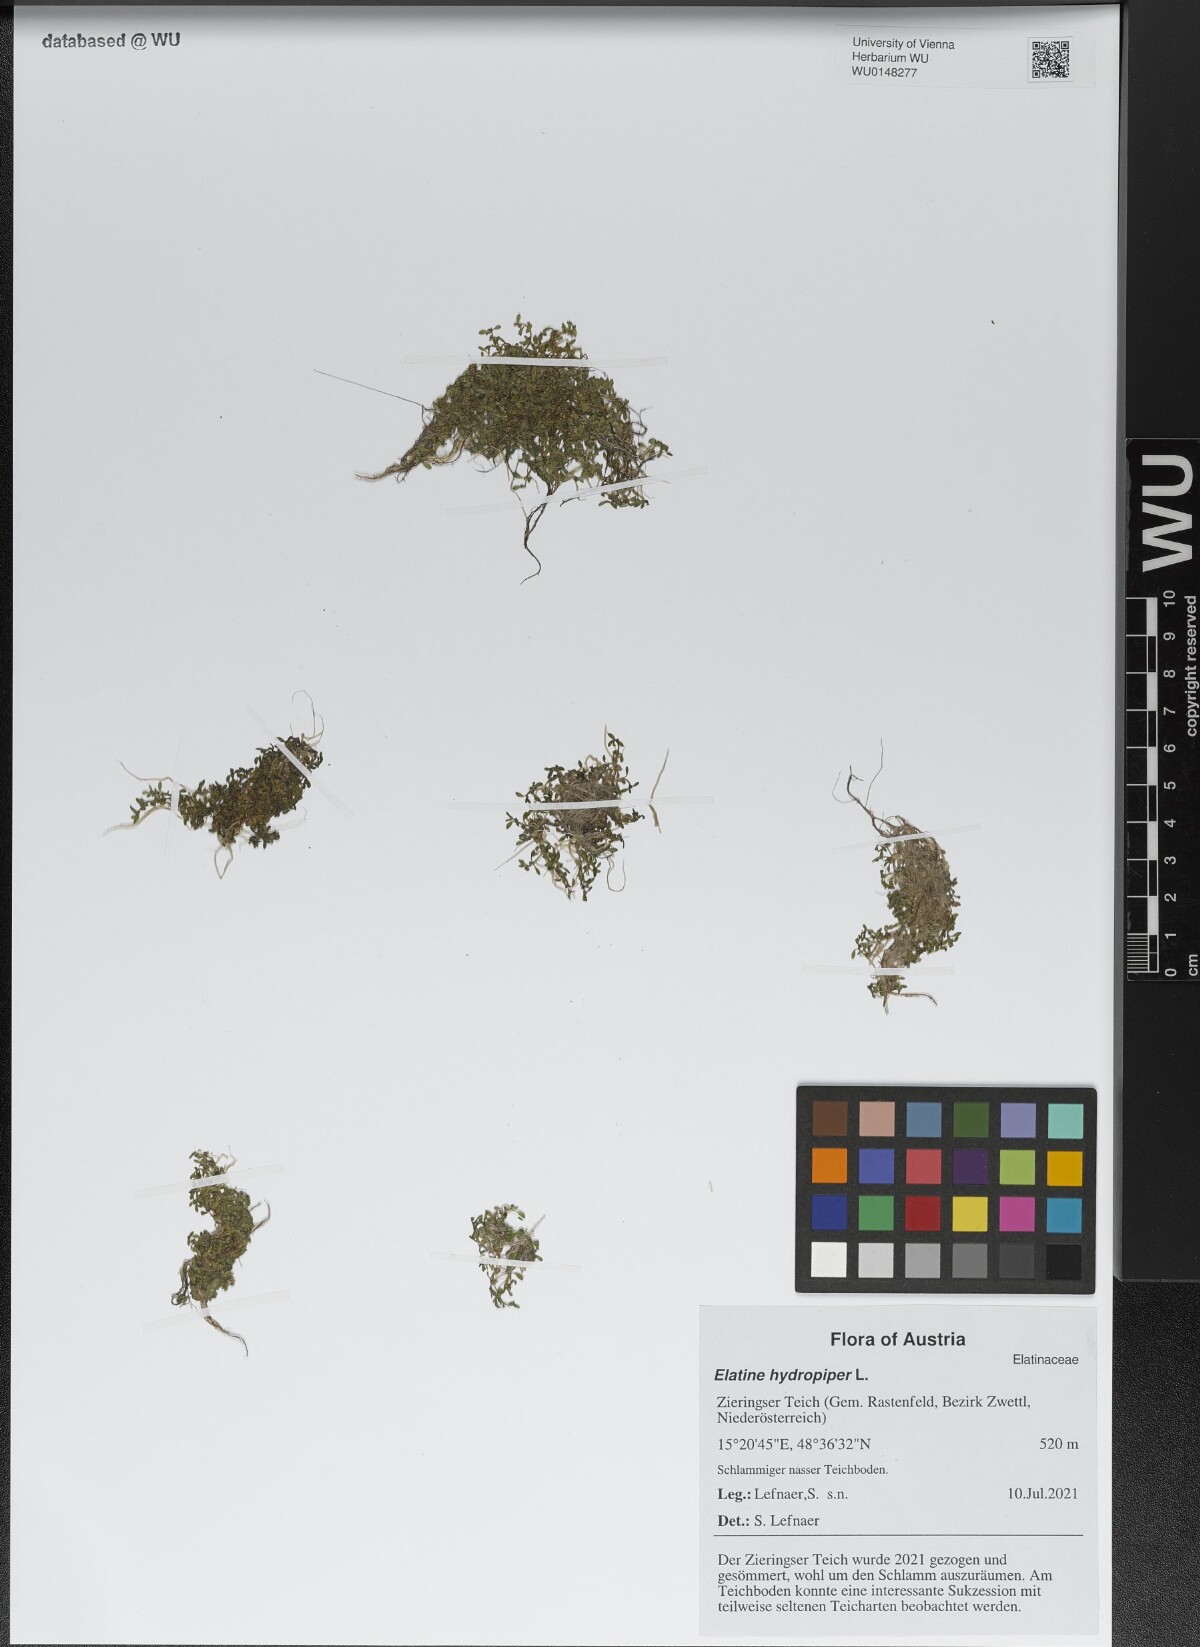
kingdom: Plantae
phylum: Tracheophyta
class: Magnoliopsida
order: Malpighiales
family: Elatinaceae
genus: Elatine
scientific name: Elatine hydropiper
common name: Eight-stamened waterwort
